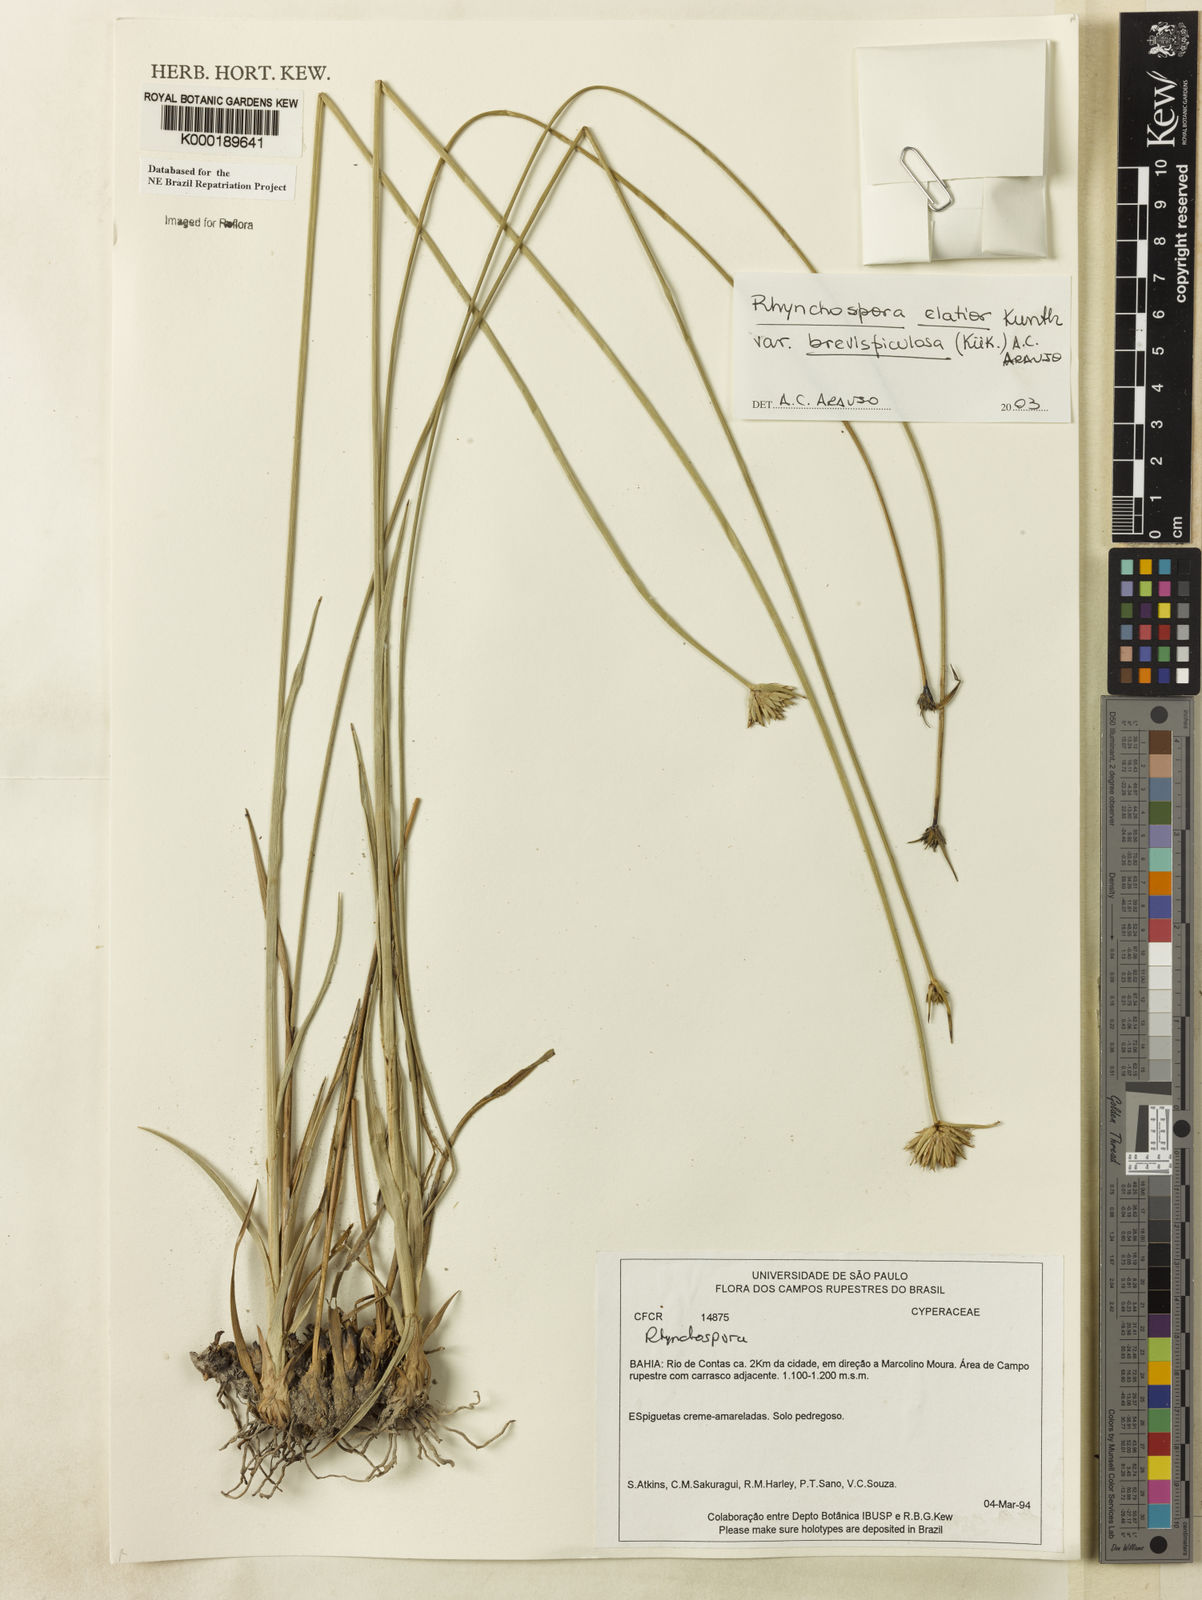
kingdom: Plantae
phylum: Tracheophyta
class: Liliopsida
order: Poales
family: Cyperaceae
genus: Rhynchospora
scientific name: Rhynchospora elatior
